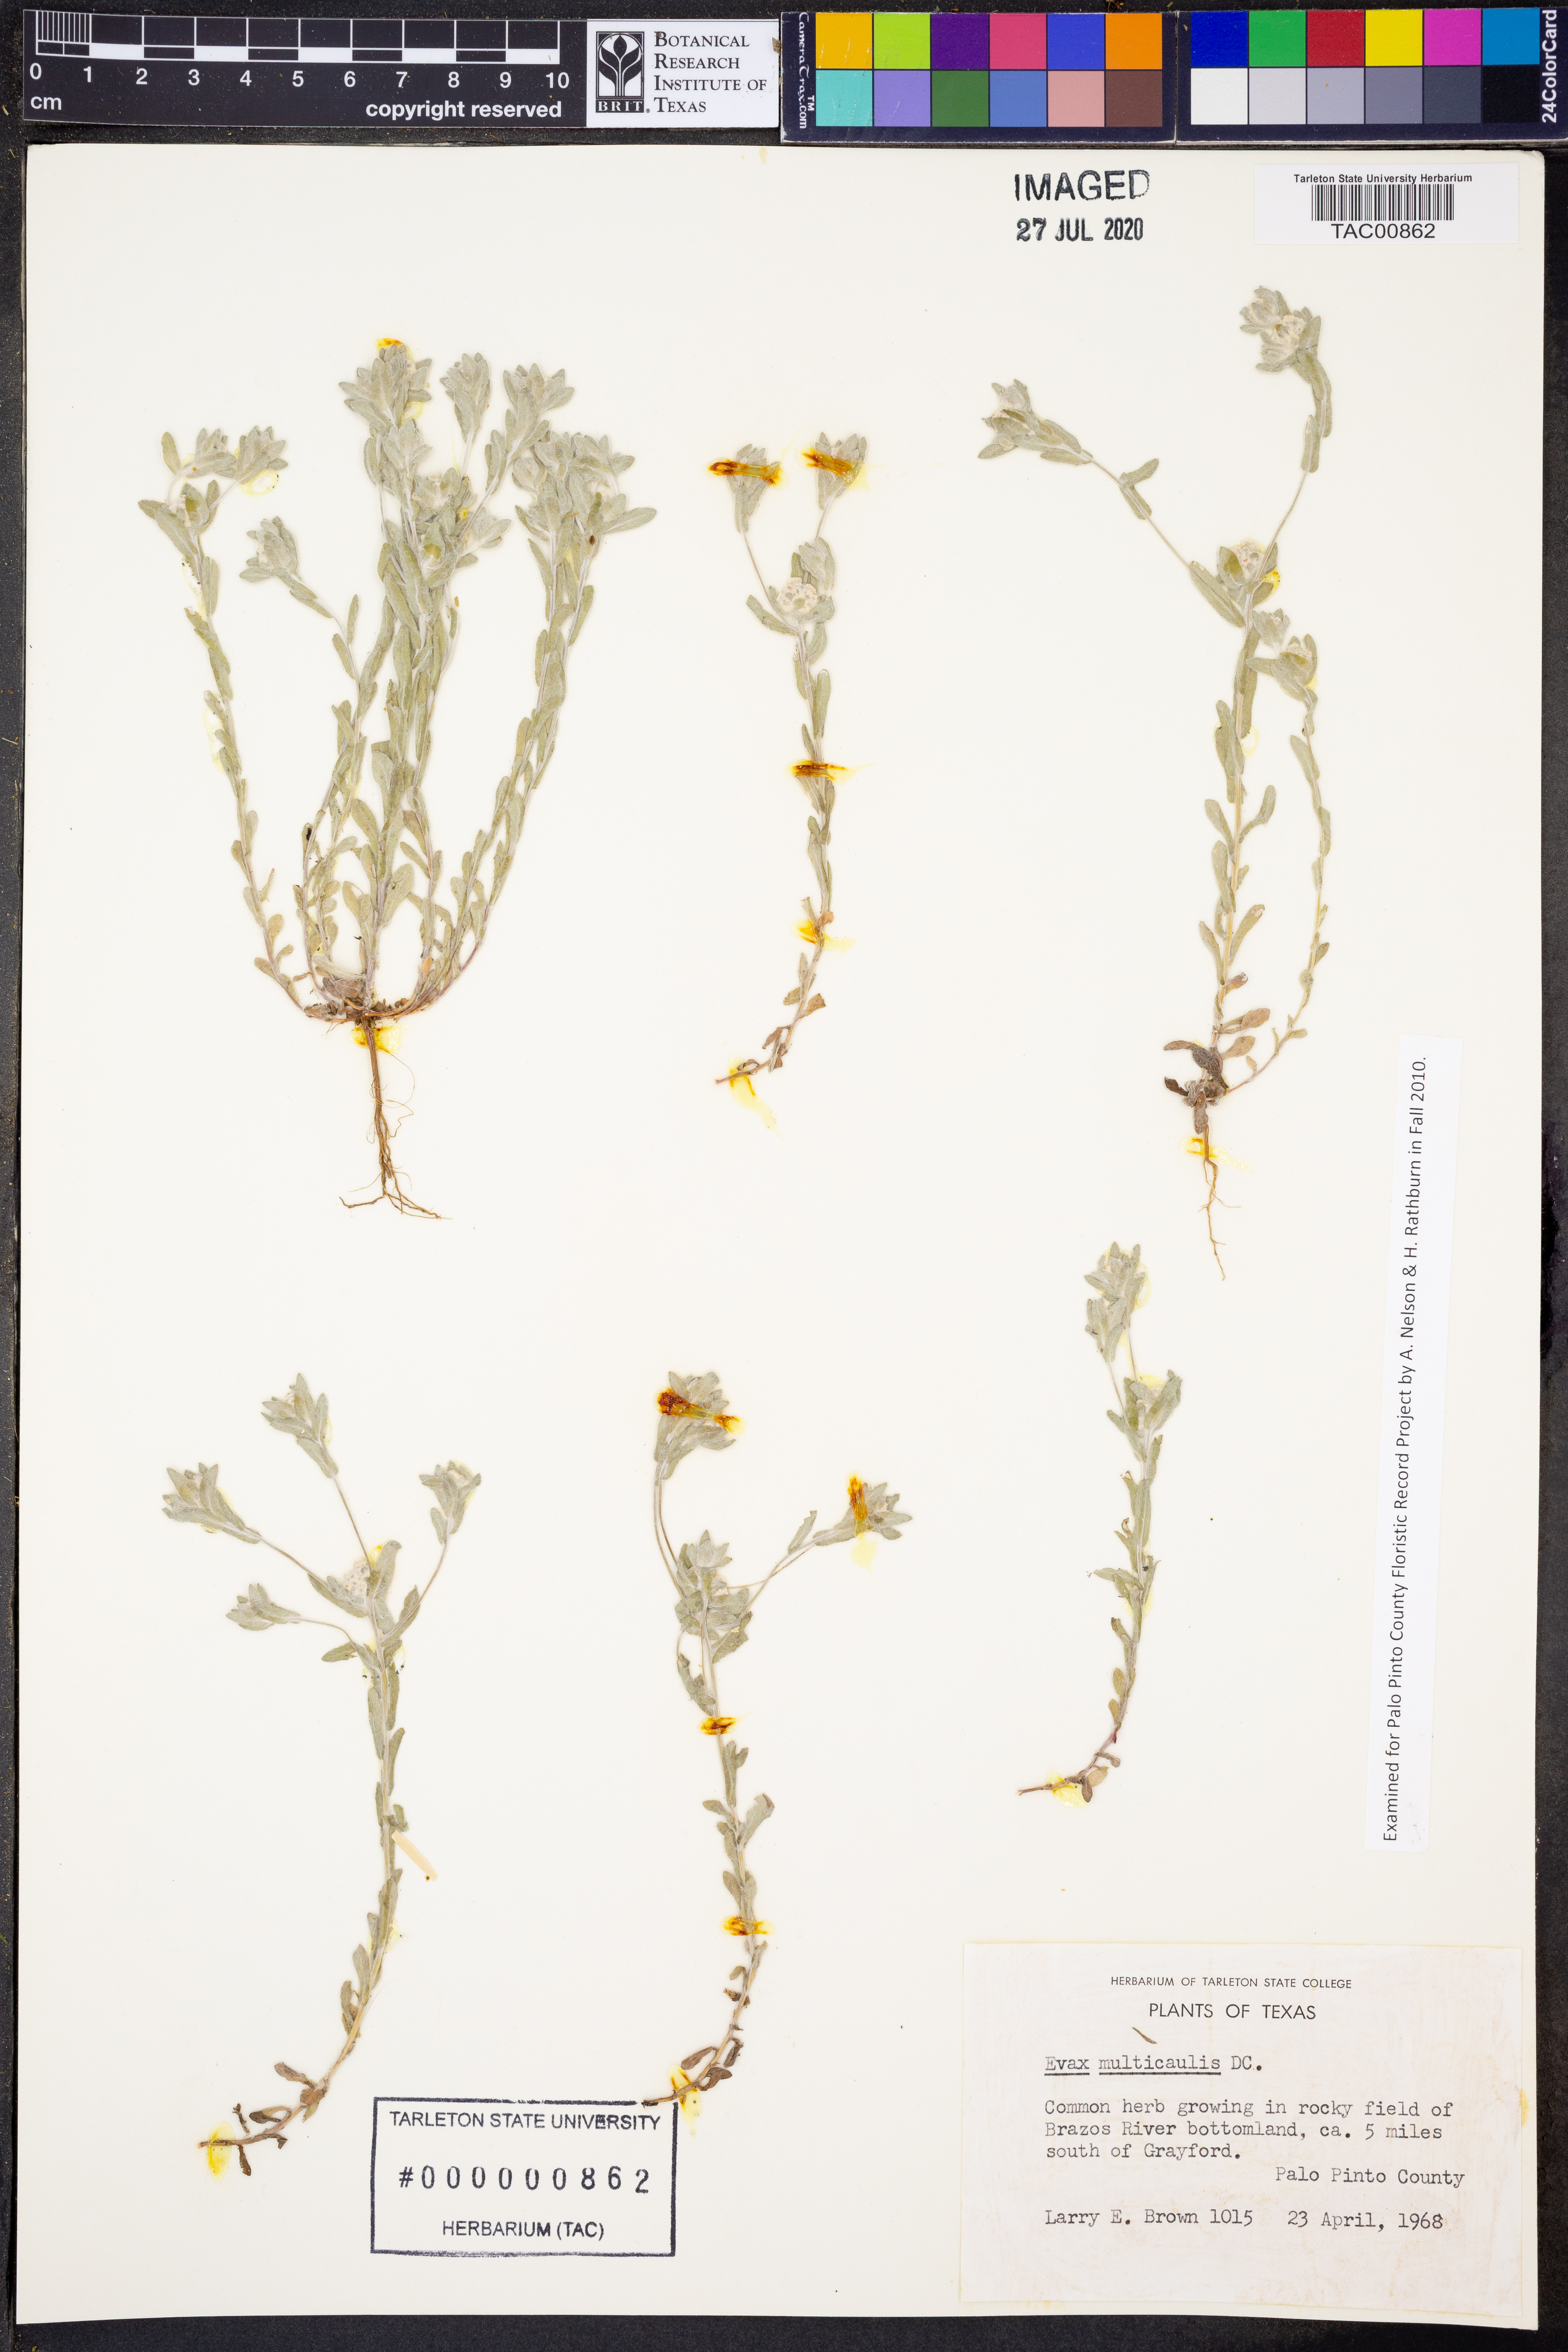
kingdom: Plantae
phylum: Tracheophyta
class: Magnoliopsida
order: Asterales
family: Asteraceae
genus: Diaperia
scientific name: Diaperia verna
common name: Many-stem rabbit-tobacco
